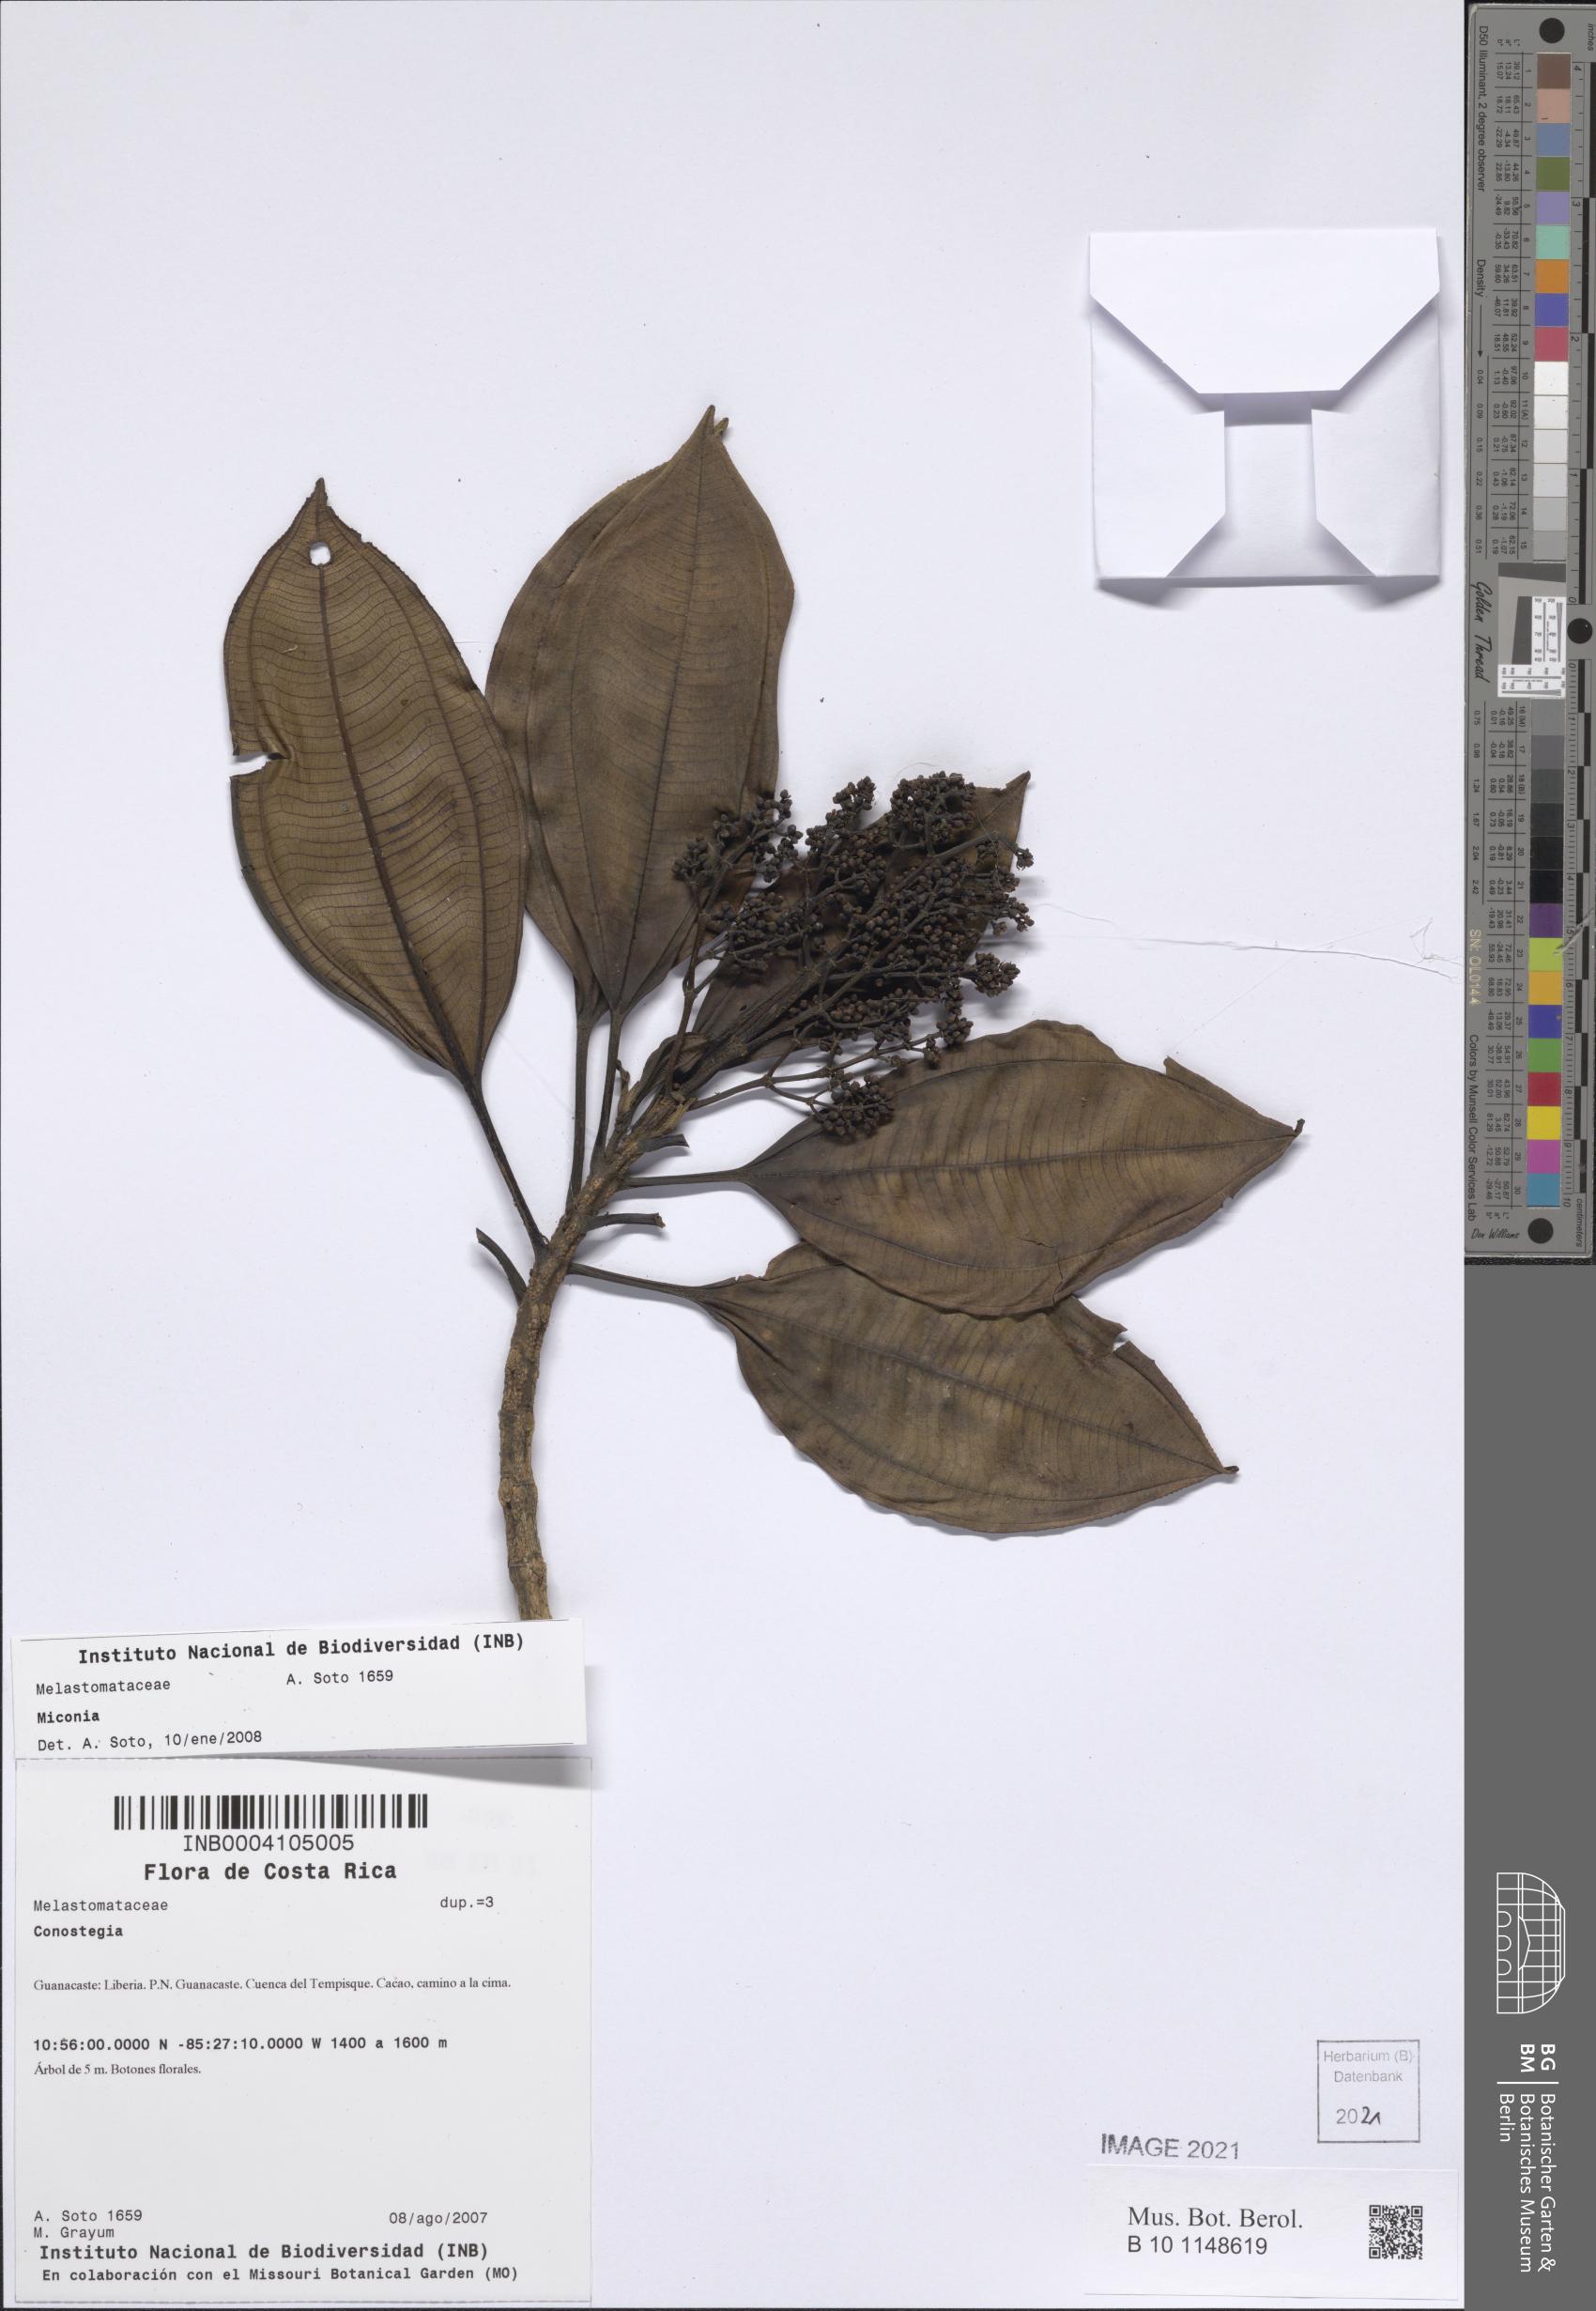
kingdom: Plantae
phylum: Tracheophyta
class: Magnoliopsida
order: Myrtales
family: Melastomataceae
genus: Miconia
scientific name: Miconia
